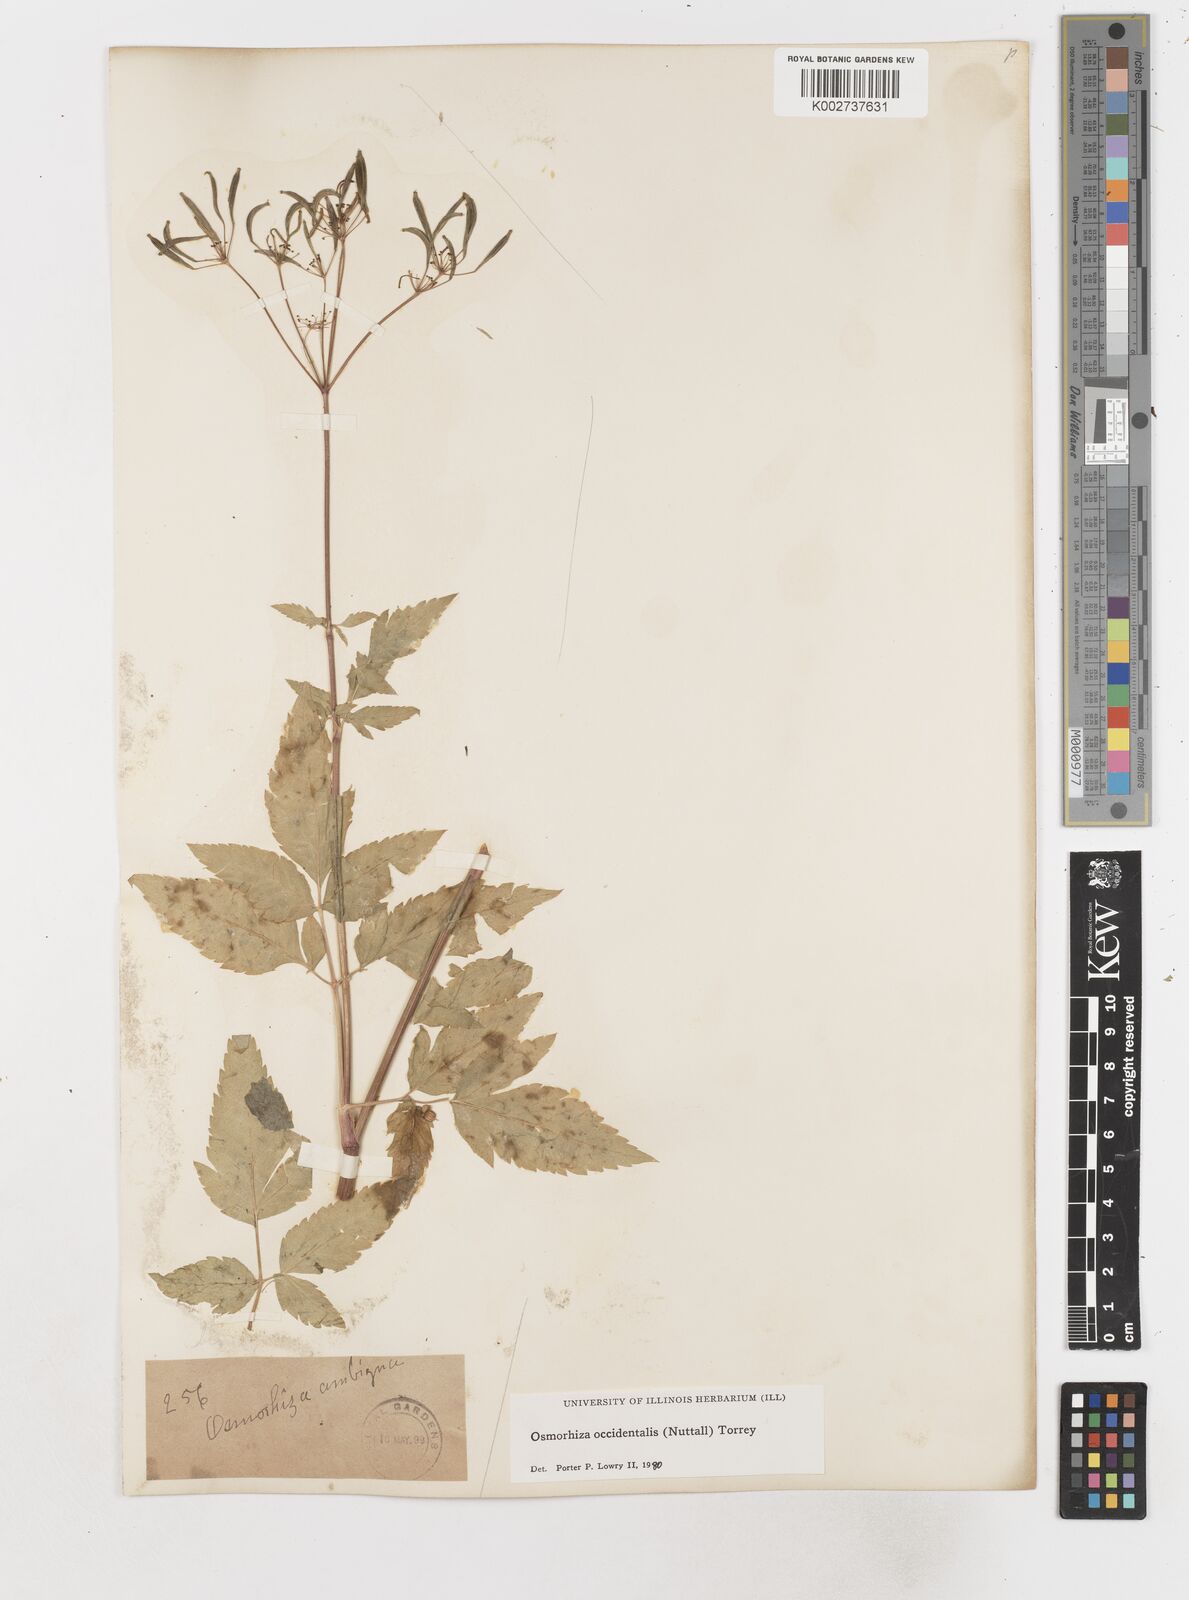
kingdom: Plantae
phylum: Tracheophyta
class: Magnoliopsida
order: Apiales
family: Apiaceae
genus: Osmorhiza
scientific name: Osmorhiza occidentalis
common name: Western sweet cicely
